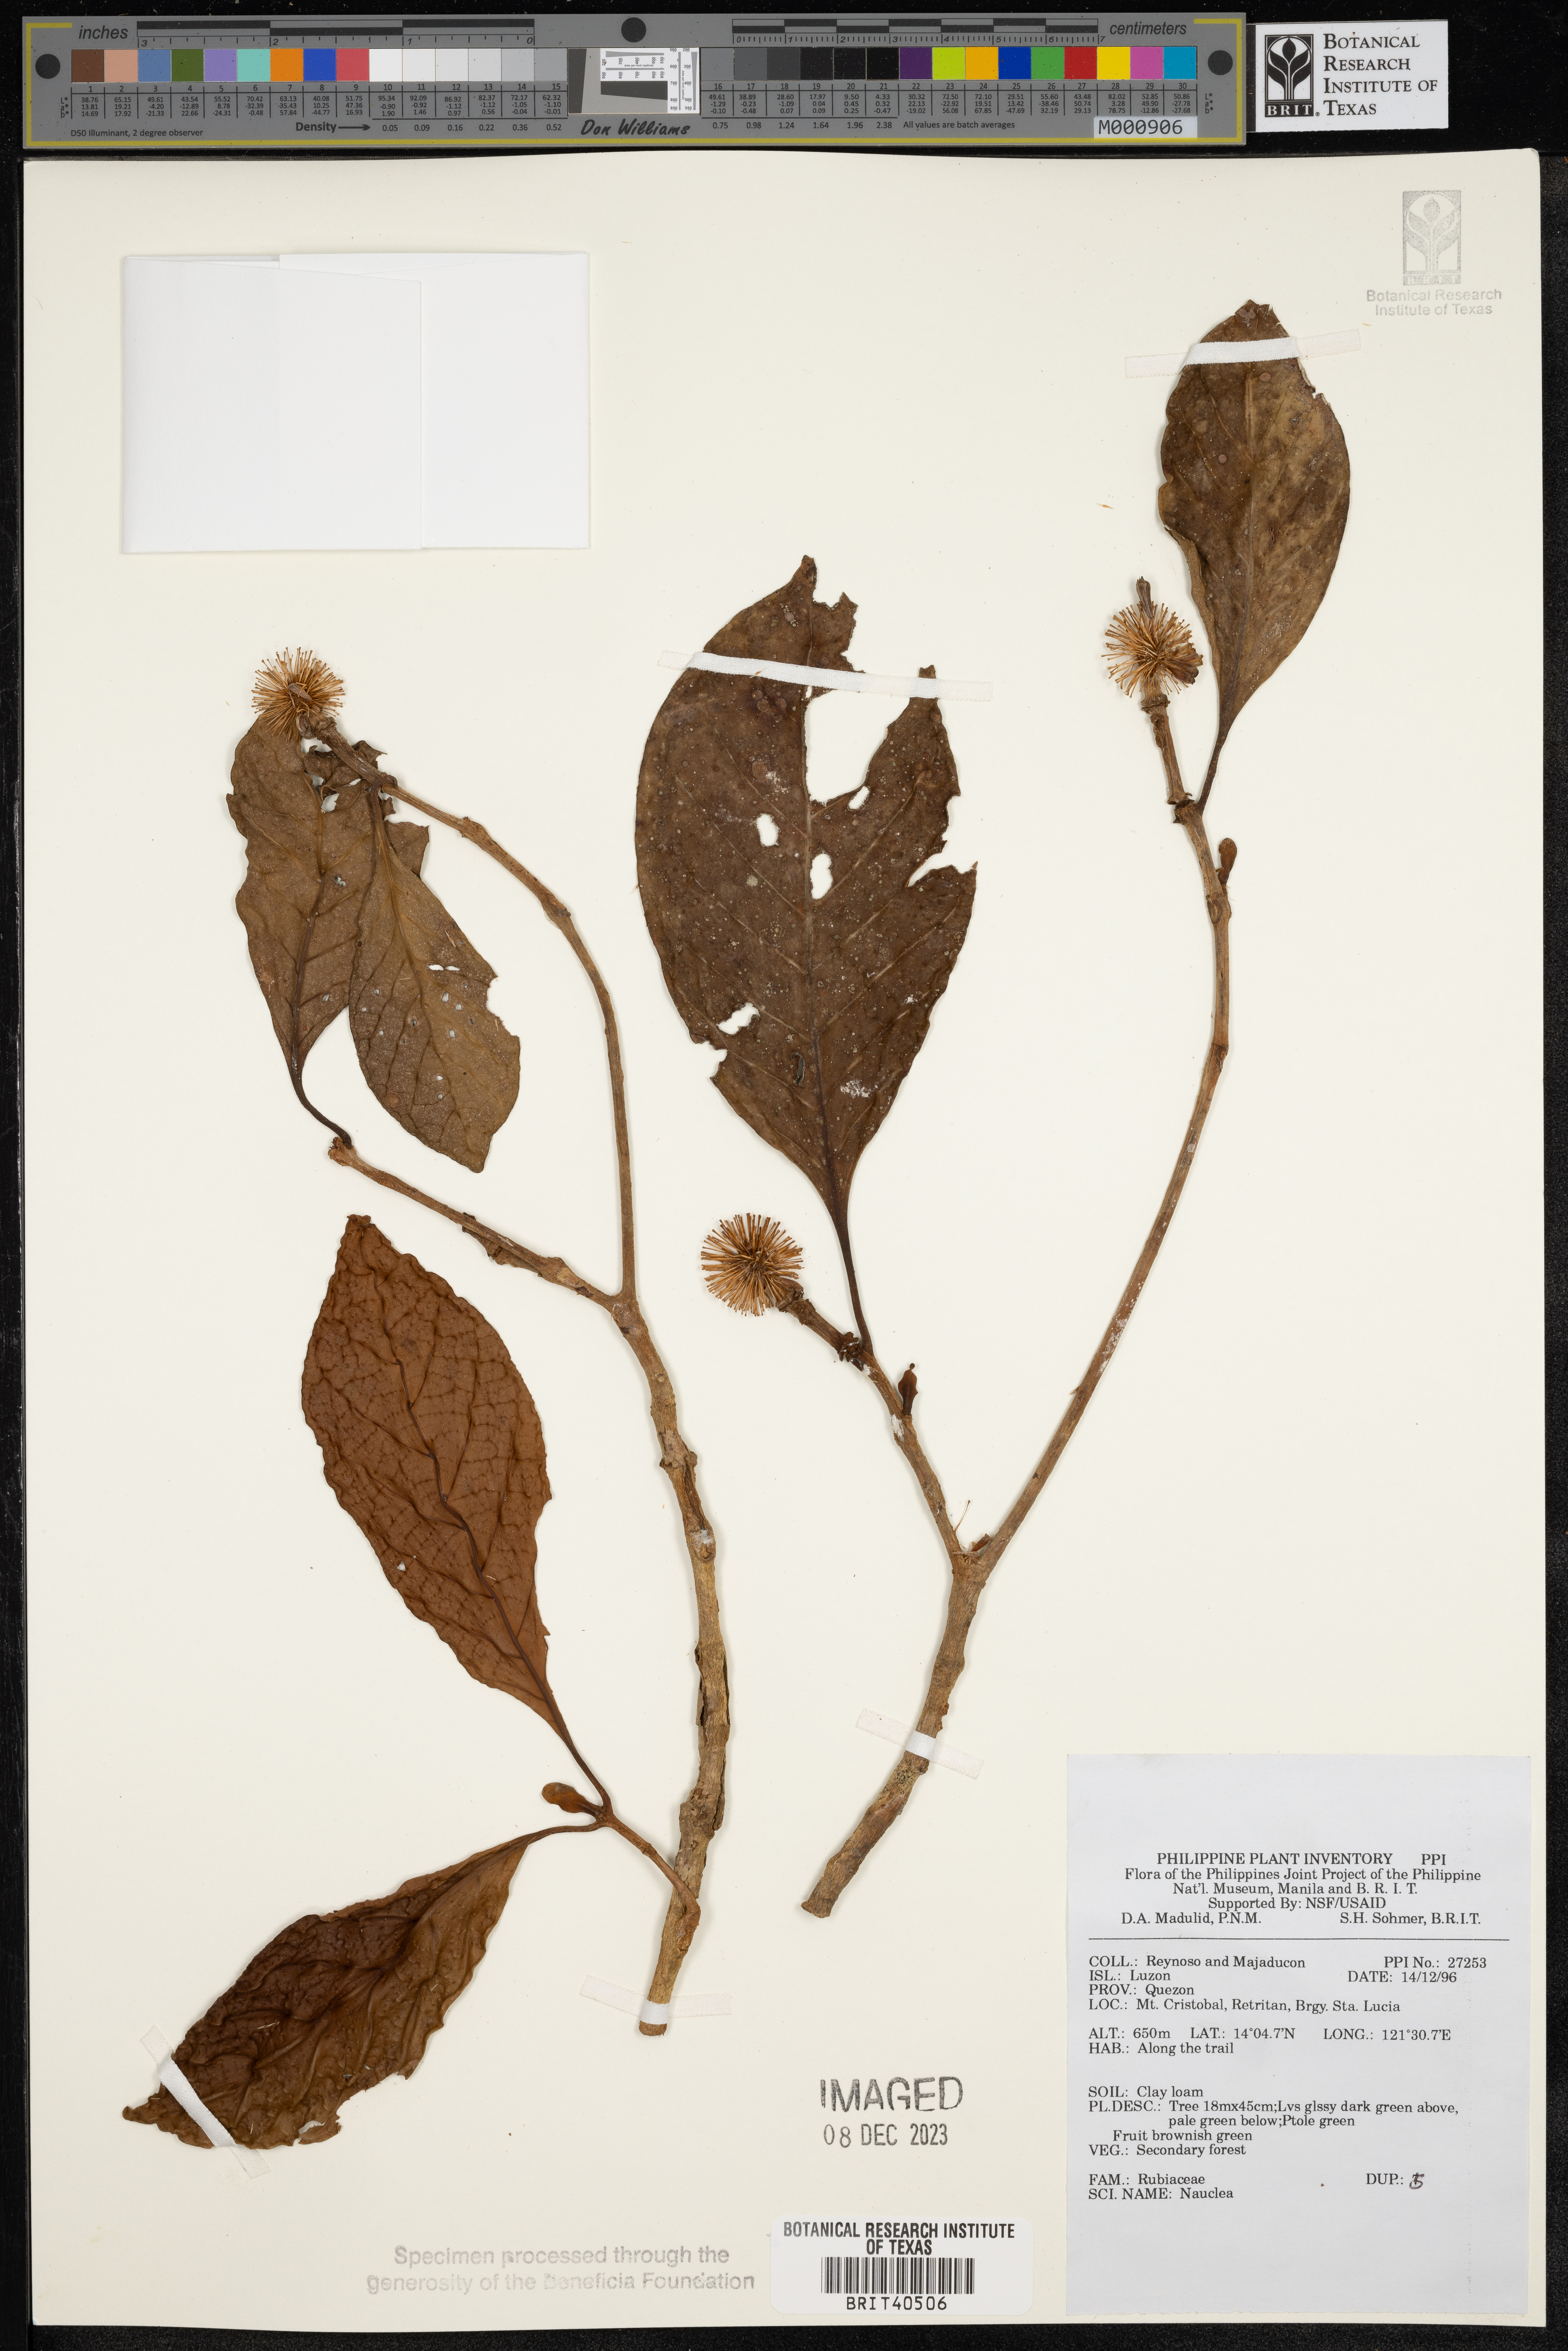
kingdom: Plantae
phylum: Tracheophyta
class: Magnoliopsida
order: Gentianales
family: Rubiaceae
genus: Nauclea
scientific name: Nauclea
